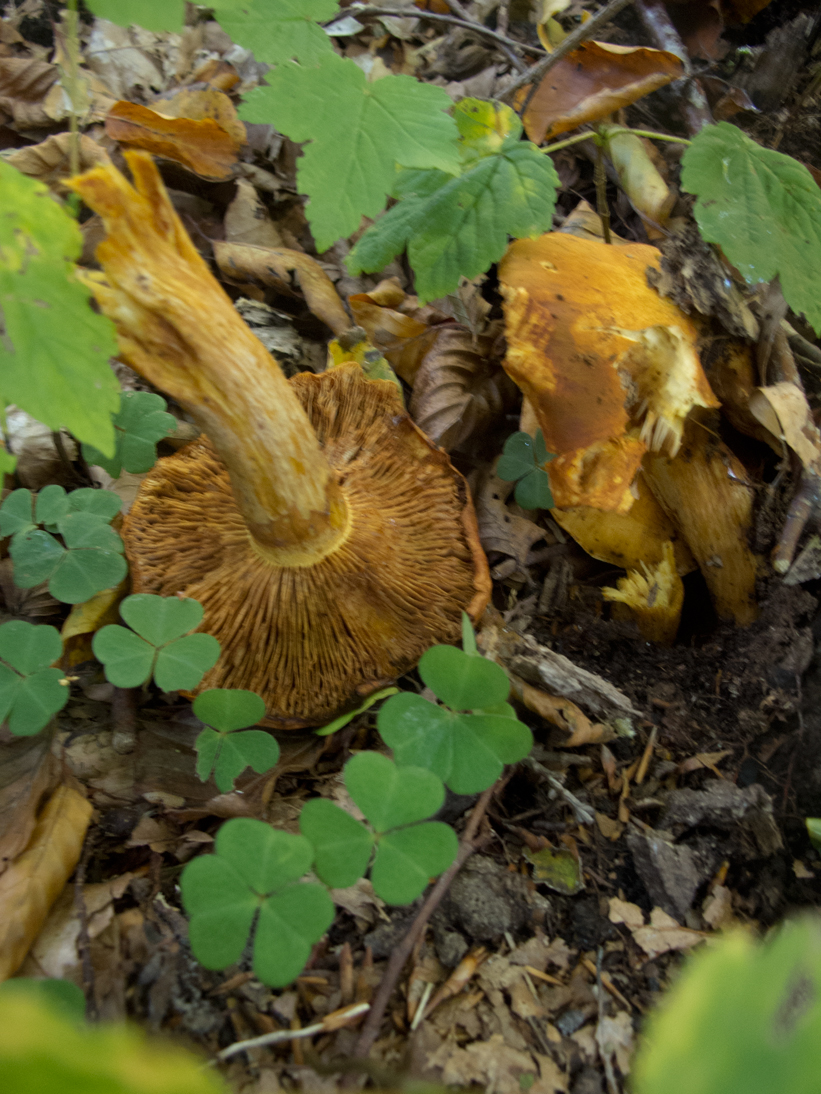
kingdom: Fungi
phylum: Basidiomycota
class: Agaricomycetes
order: Agaricales
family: Hymenogastraceae
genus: Gymnopilus
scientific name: Gymnopilus penetrans
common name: plettet flammehat
